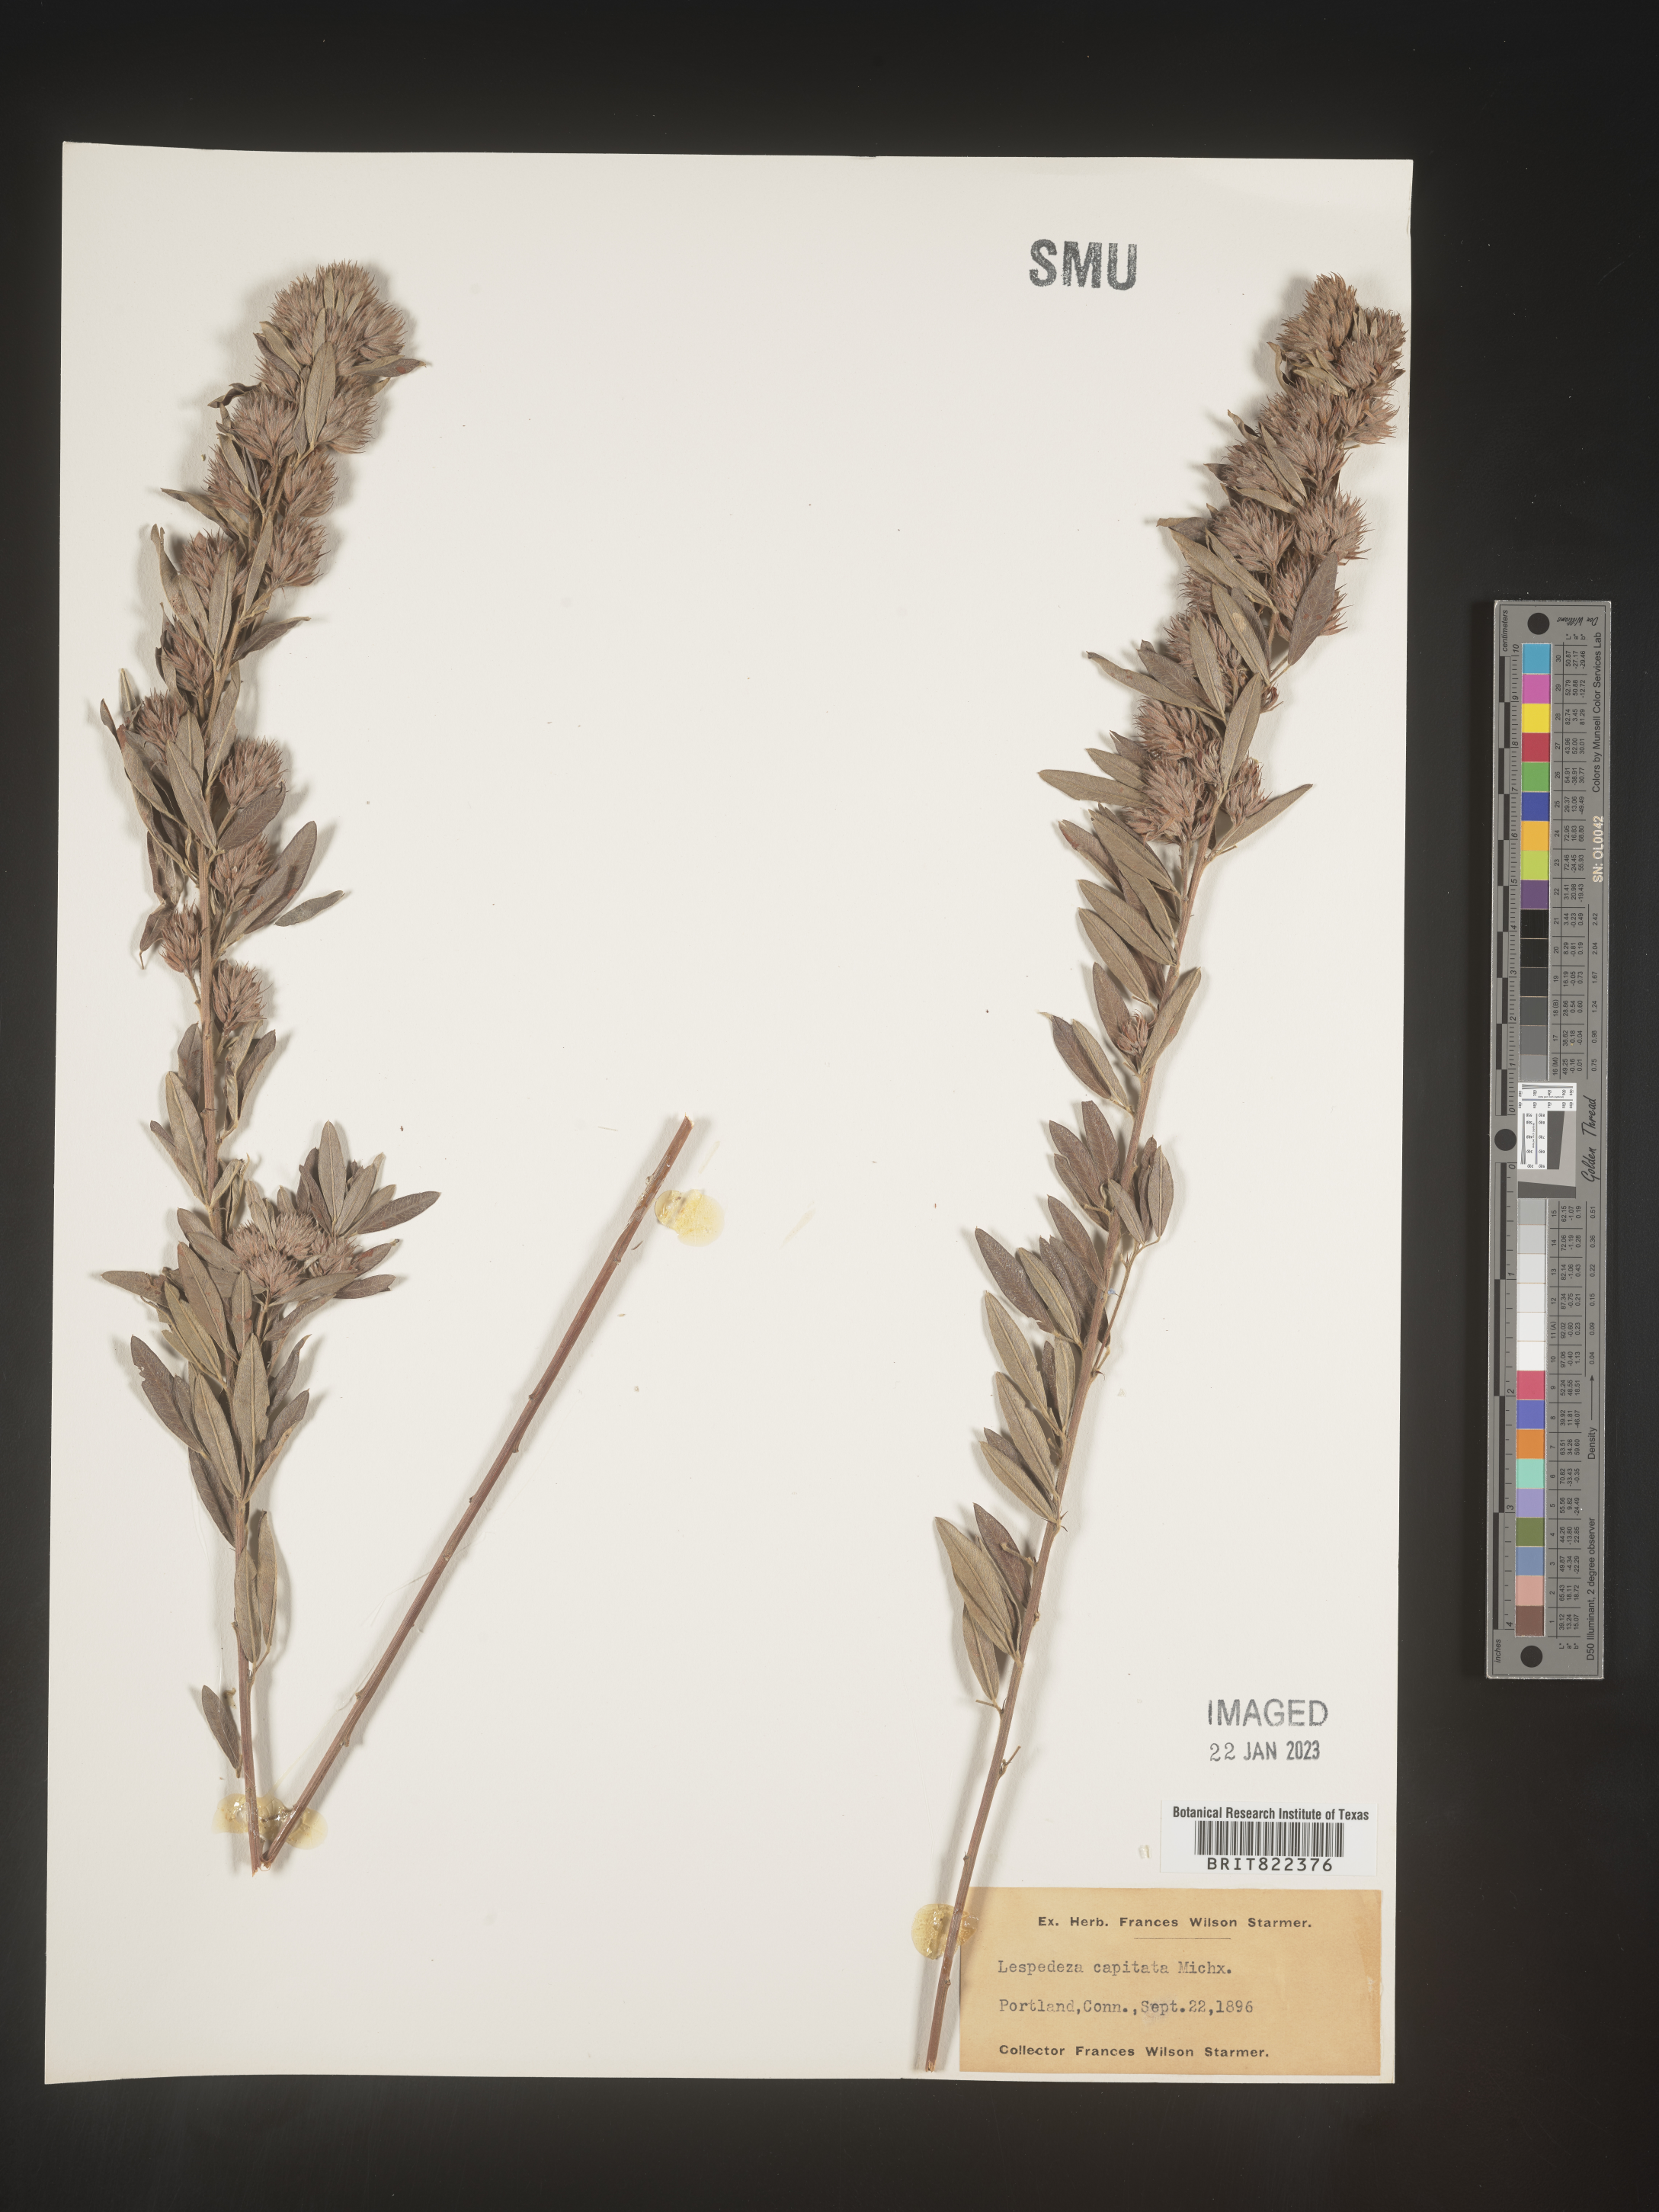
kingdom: Plantae
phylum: Tracheophyta
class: Magnoliopsida
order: Fabales
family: Fabaceae
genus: Lespedeza
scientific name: Lespedeza capitata
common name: Dusty clover
